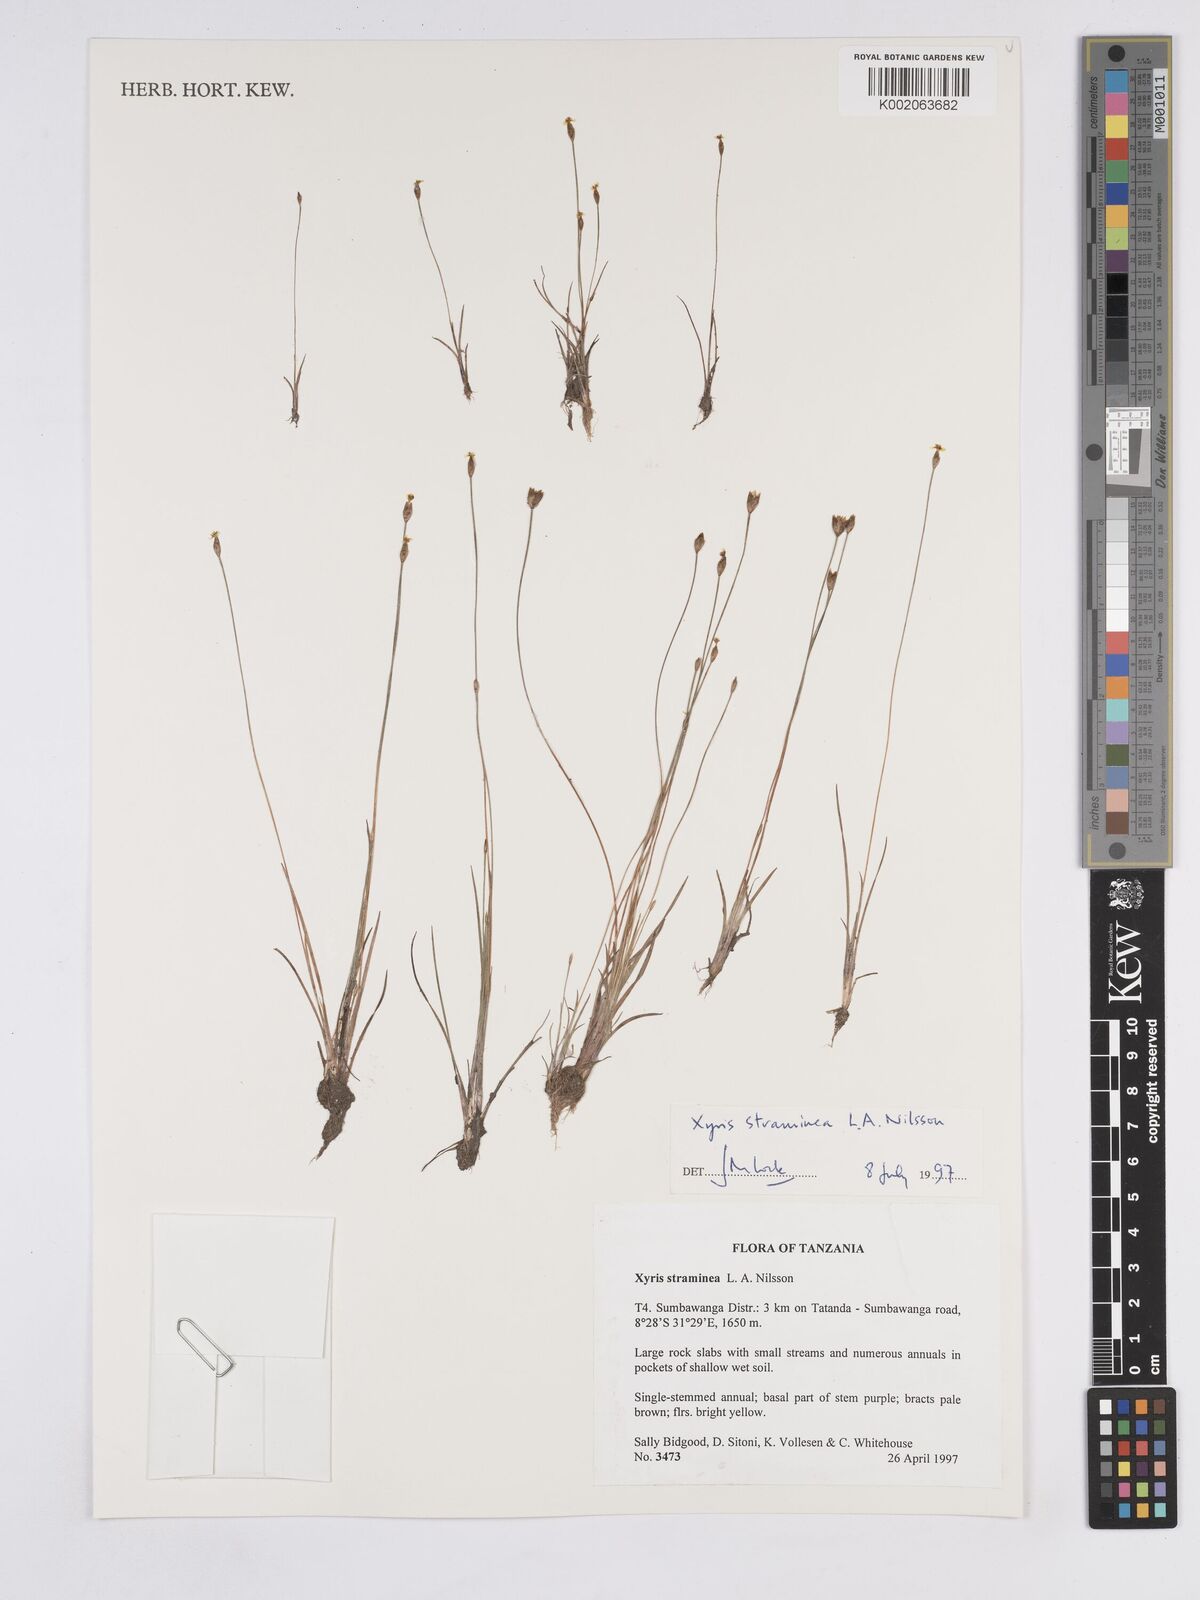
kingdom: Plantae
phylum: Tracheophyta
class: Liliopsida
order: Poales
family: Xyridaceae
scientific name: Xyridaceae
